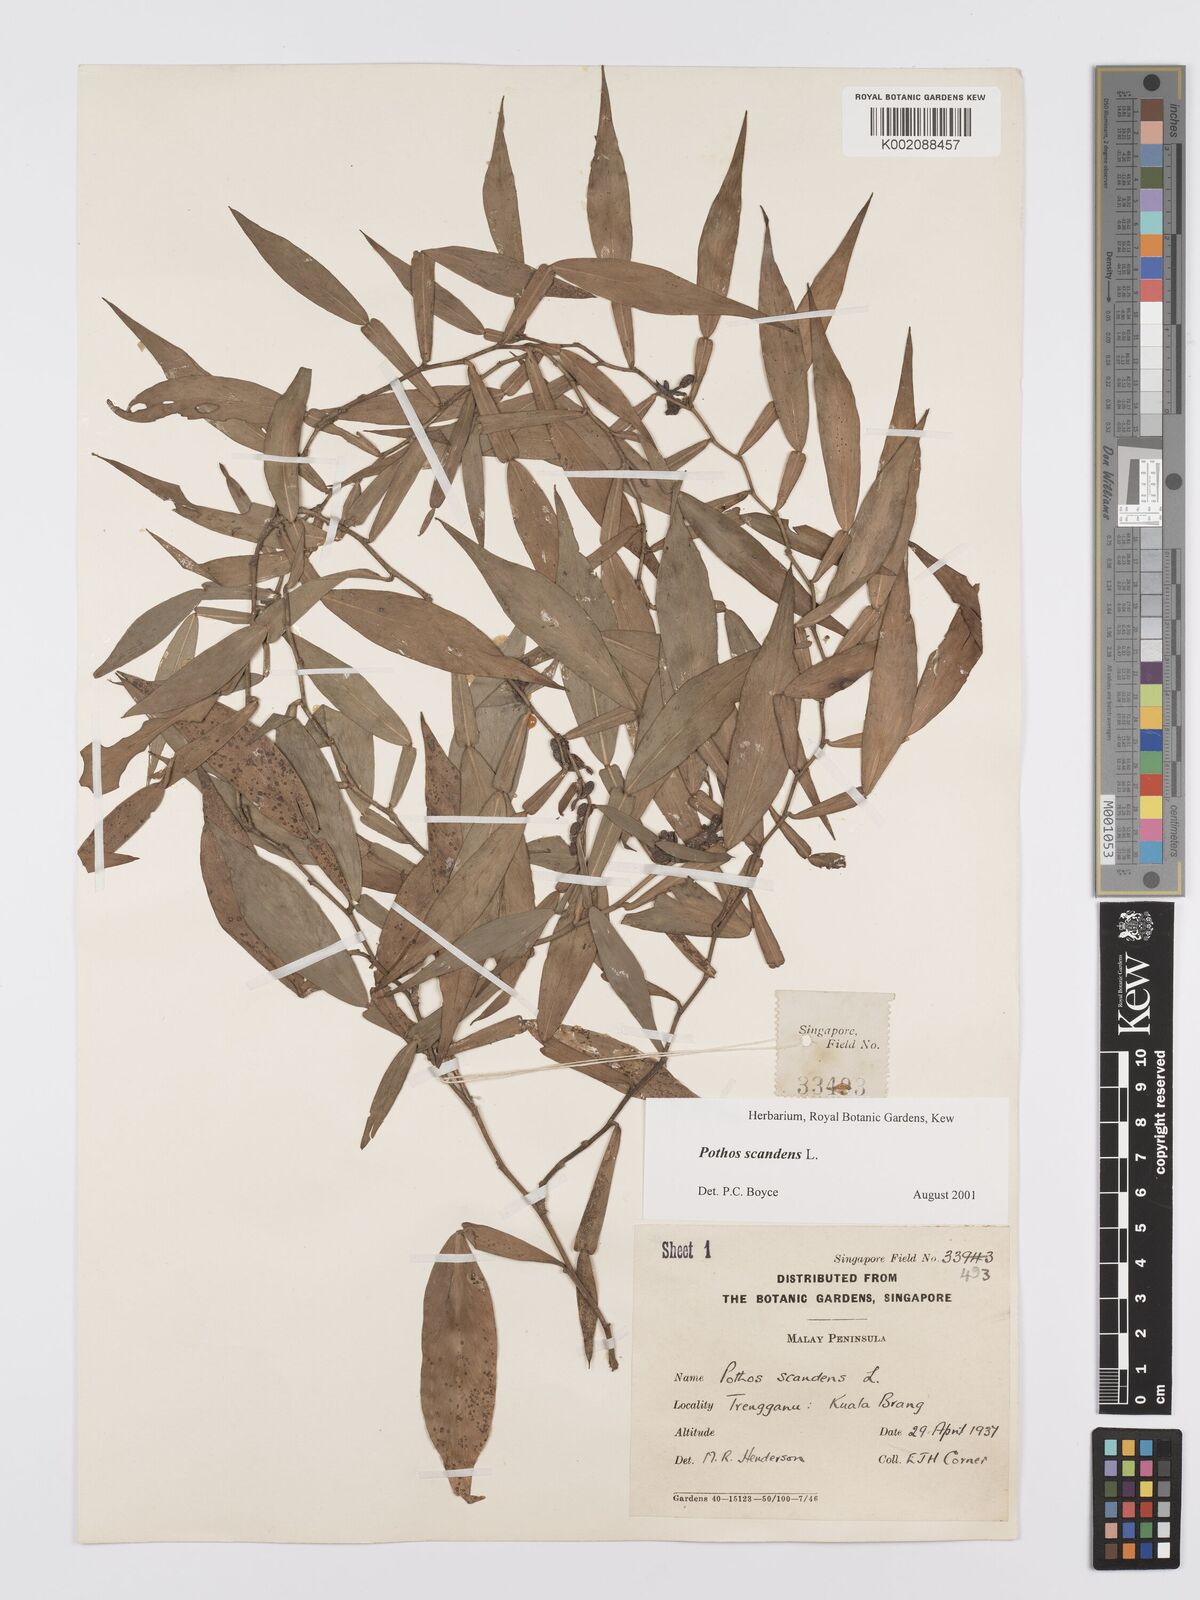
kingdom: Plantae
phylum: Tracheophyta
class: Liliopsida
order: Alismatales
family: Araceae
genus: Pothos
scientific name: Pothos scandens
